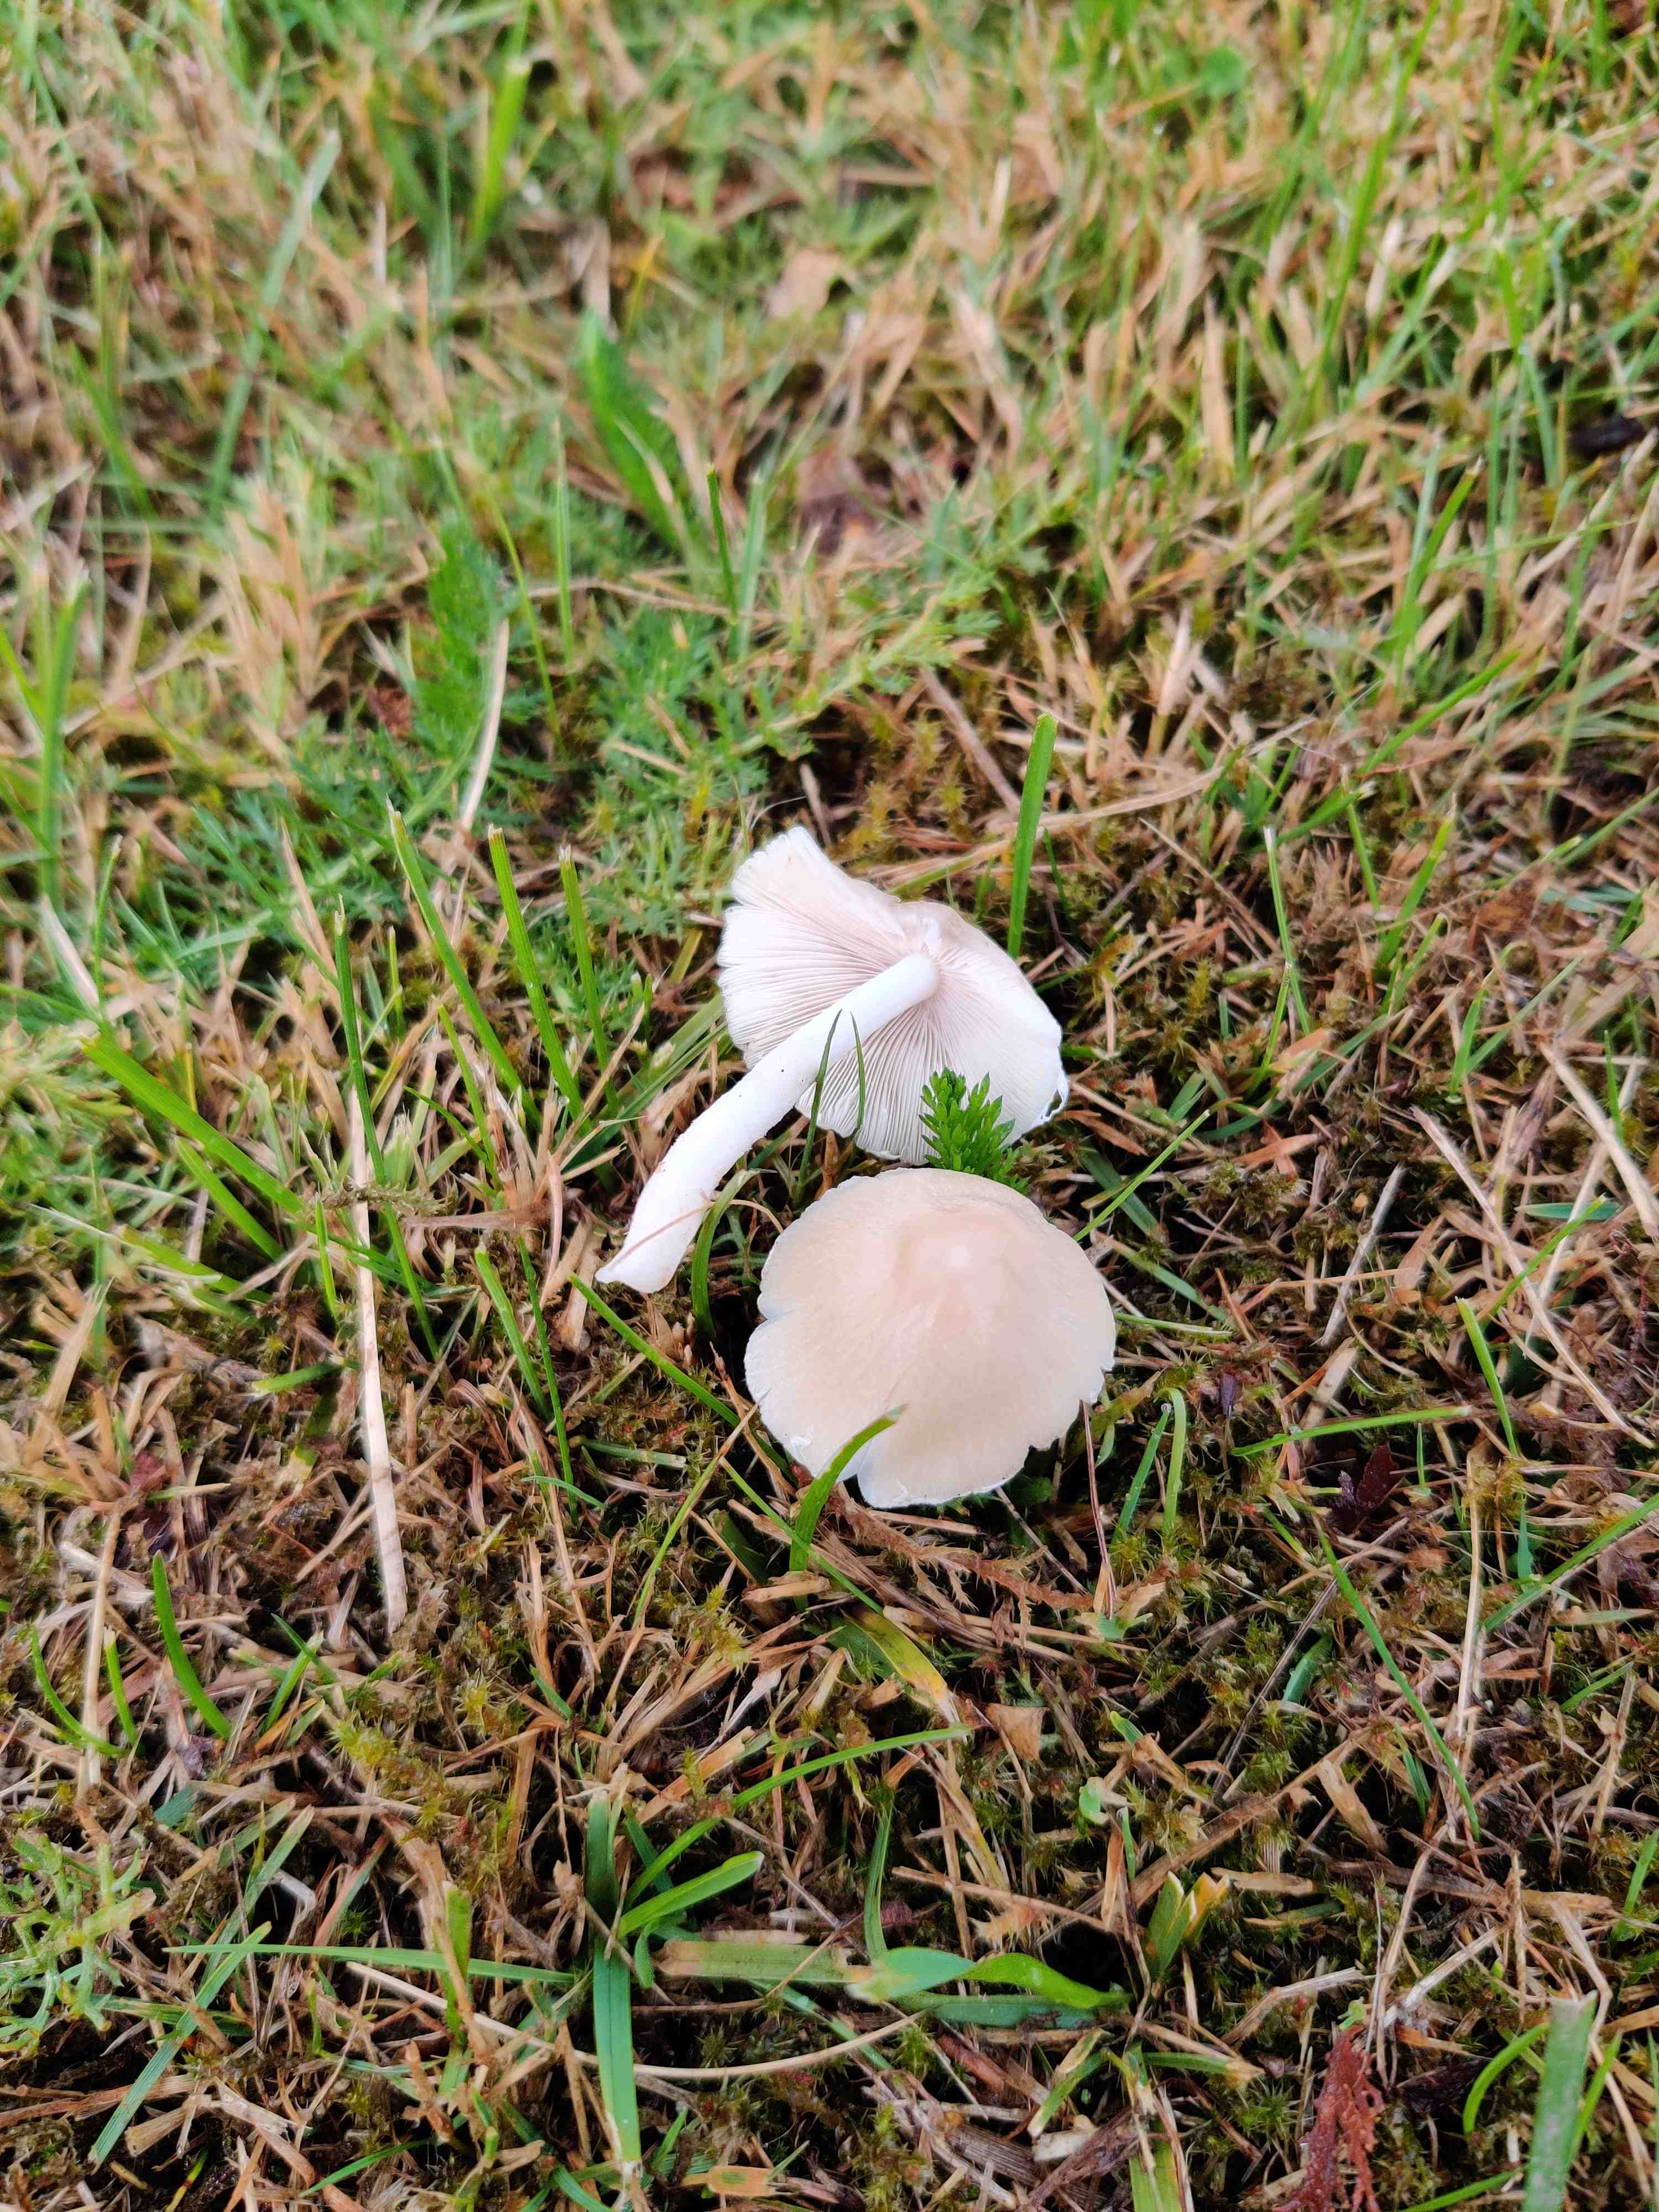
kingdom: Fungi
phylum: Basidiomycota
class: Agaricomycetes
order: Agaricales
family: Psathyrellaceae
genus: Candolleomyces
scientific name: Candolleomyces candolleanus
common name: Candolles mørkhat
